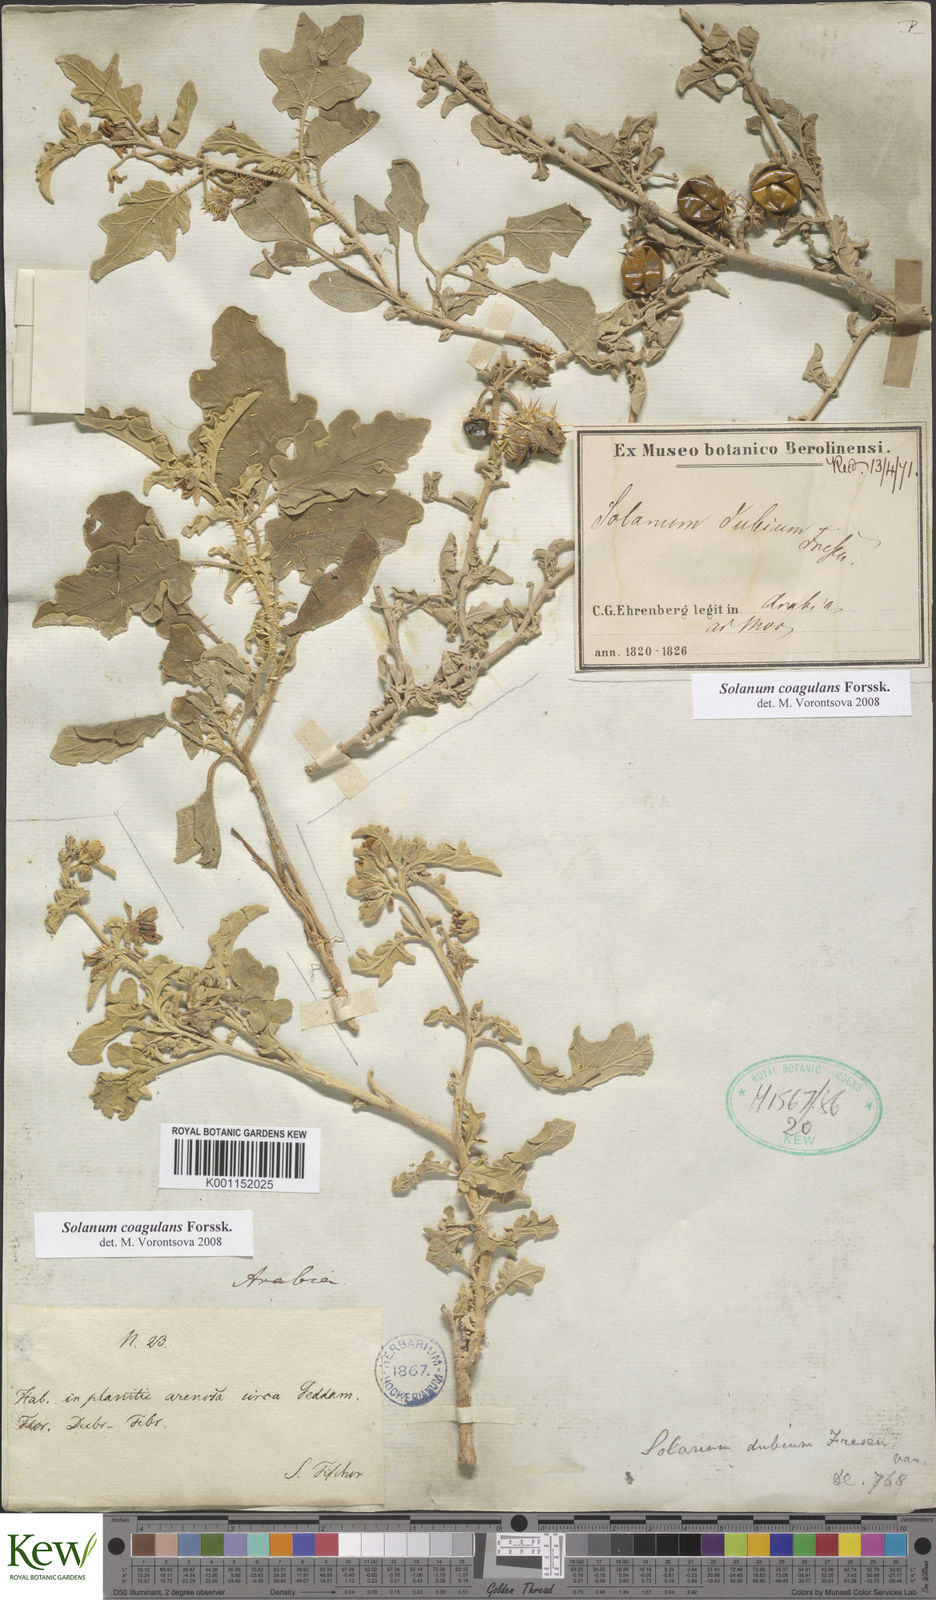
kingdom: Plantae
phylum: Tracheophyta
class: Magnoliopsida
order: Solanales
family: Solanaceae
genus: Solanum
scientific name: Solanum coagulans
